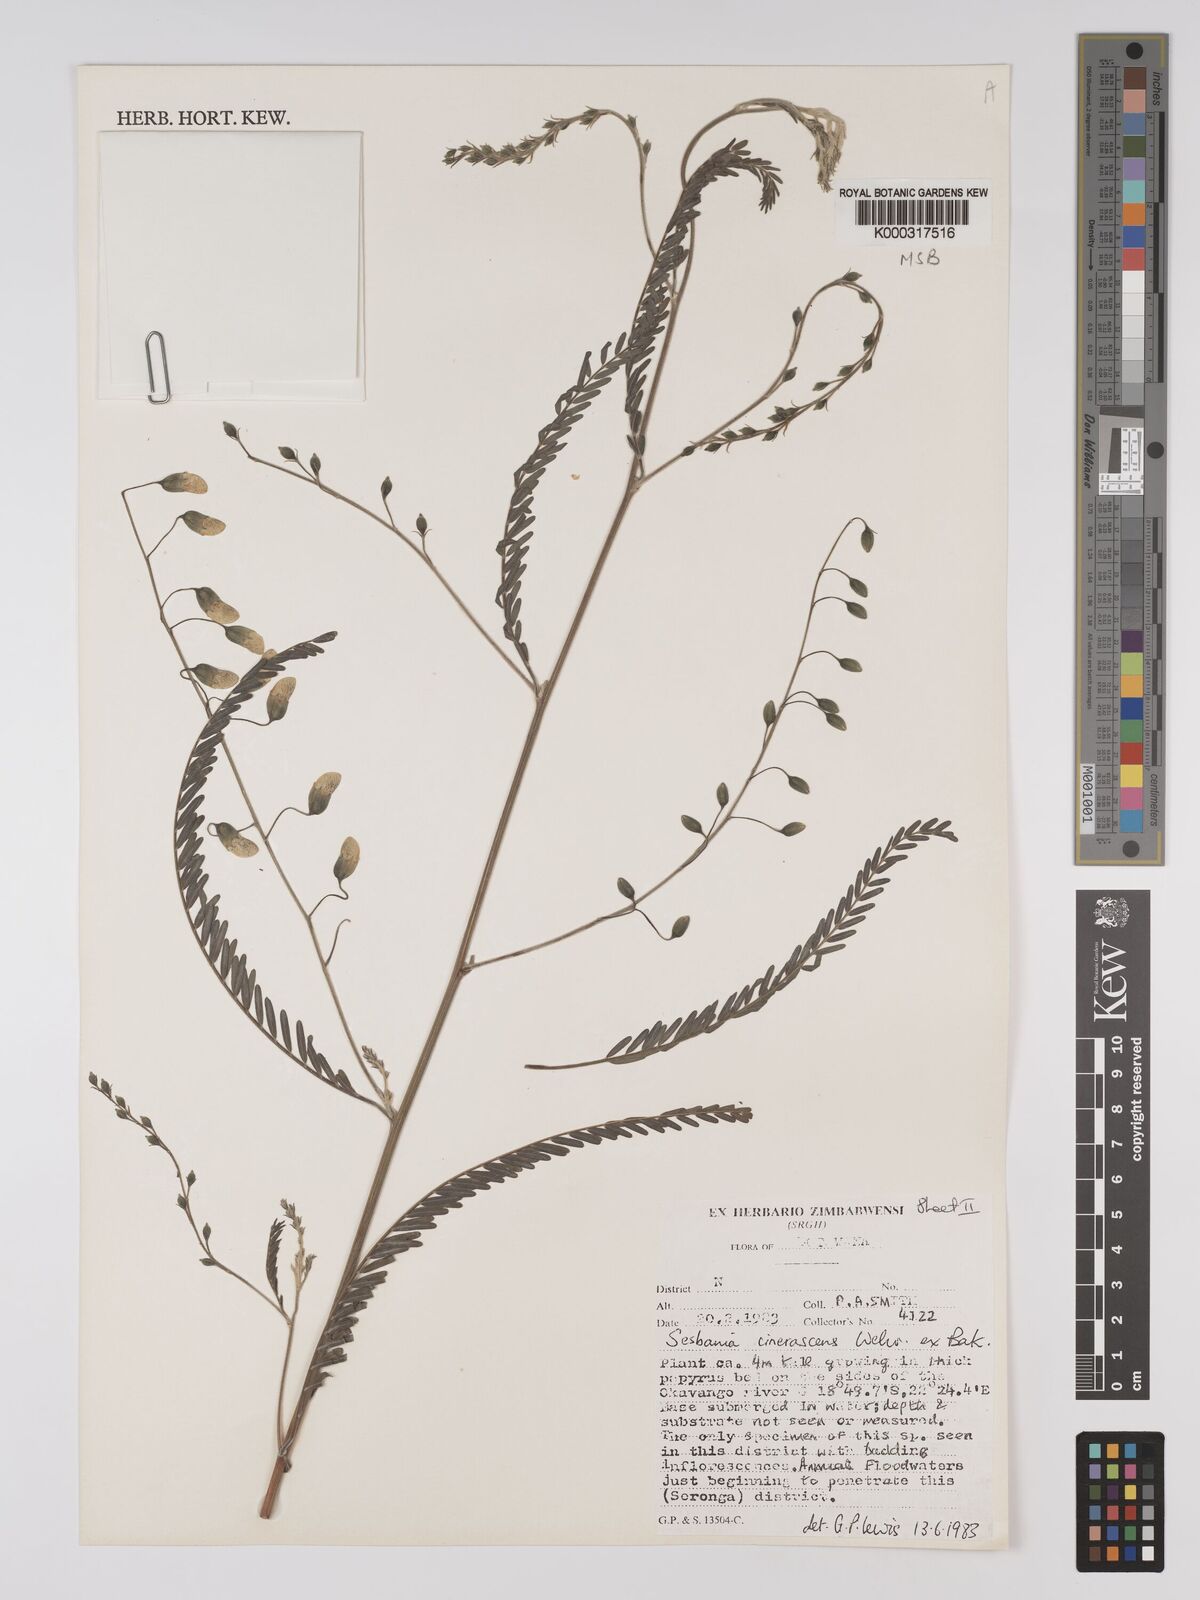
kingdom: Plantae
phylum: Tracheophyta
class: Magnoliopsida
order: Fabales
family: Fabaceae
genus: Sesbania
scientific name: Sesbania cinerascens
